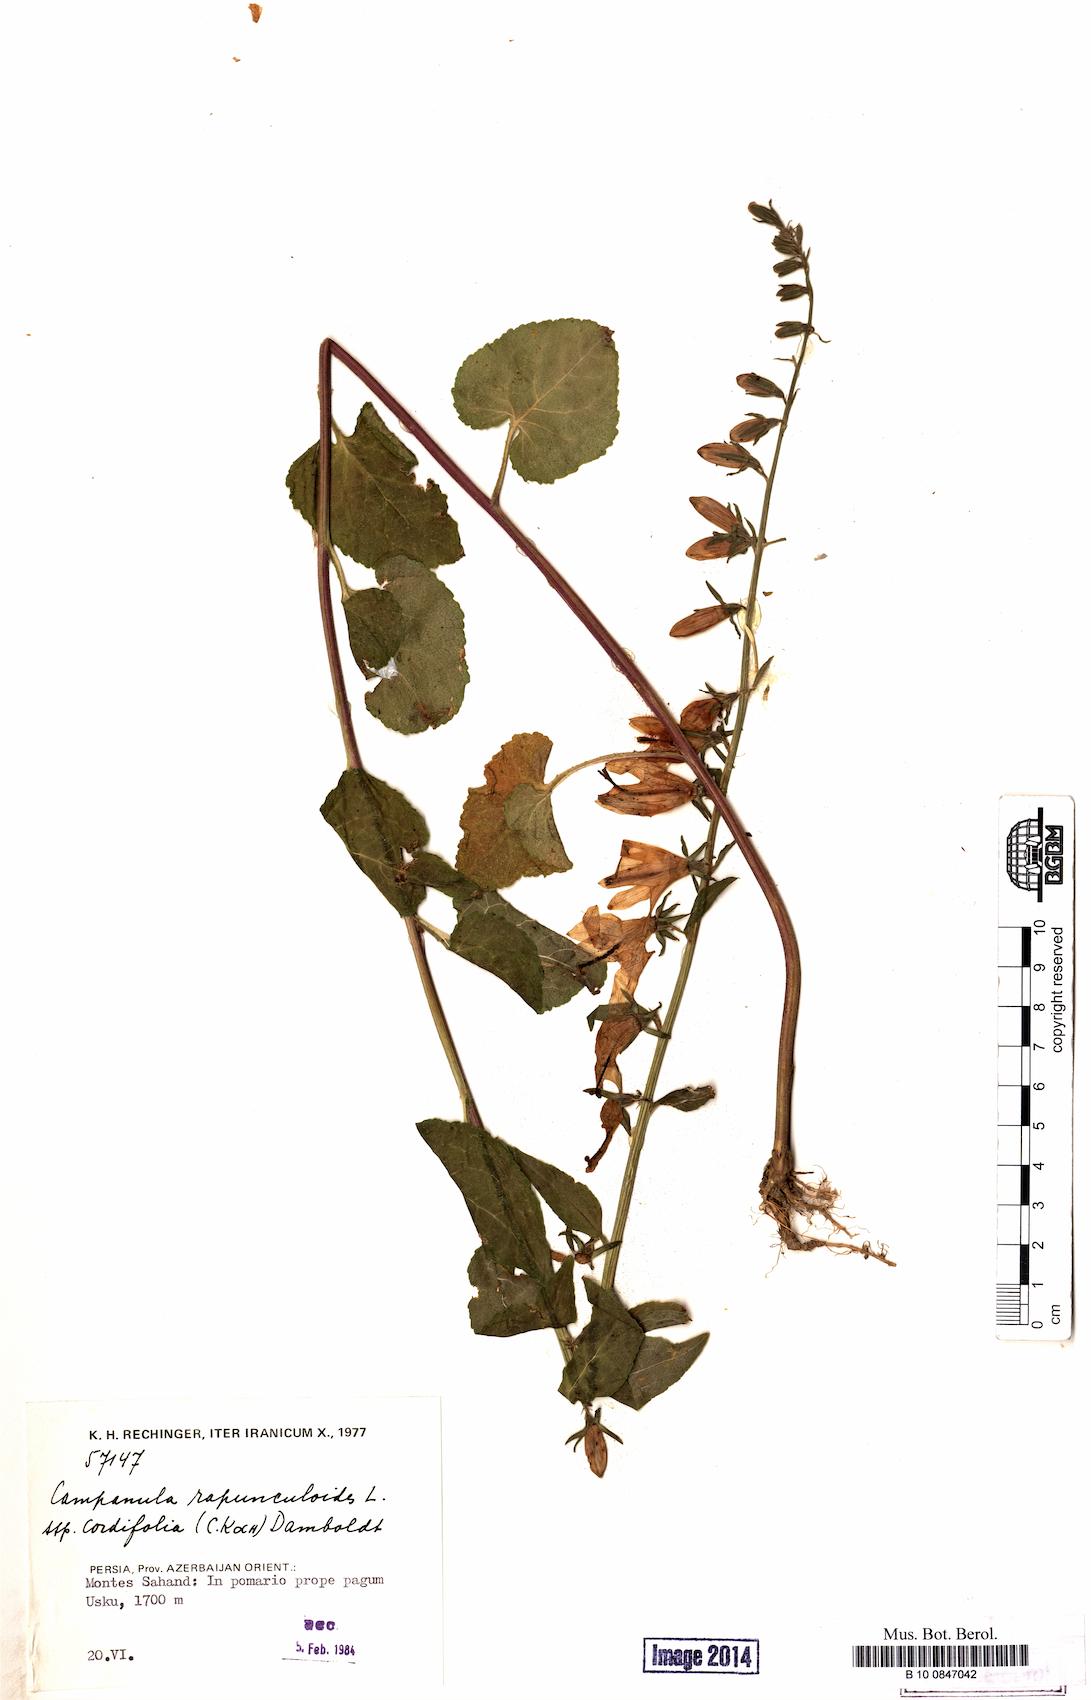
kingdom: Plantae
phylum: Tracheophyta
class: Magnoliopsida
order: Asterales
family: Campanulaceae
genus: Campanula
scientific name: Campanula rapunculoides
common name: Creeping bellflower
